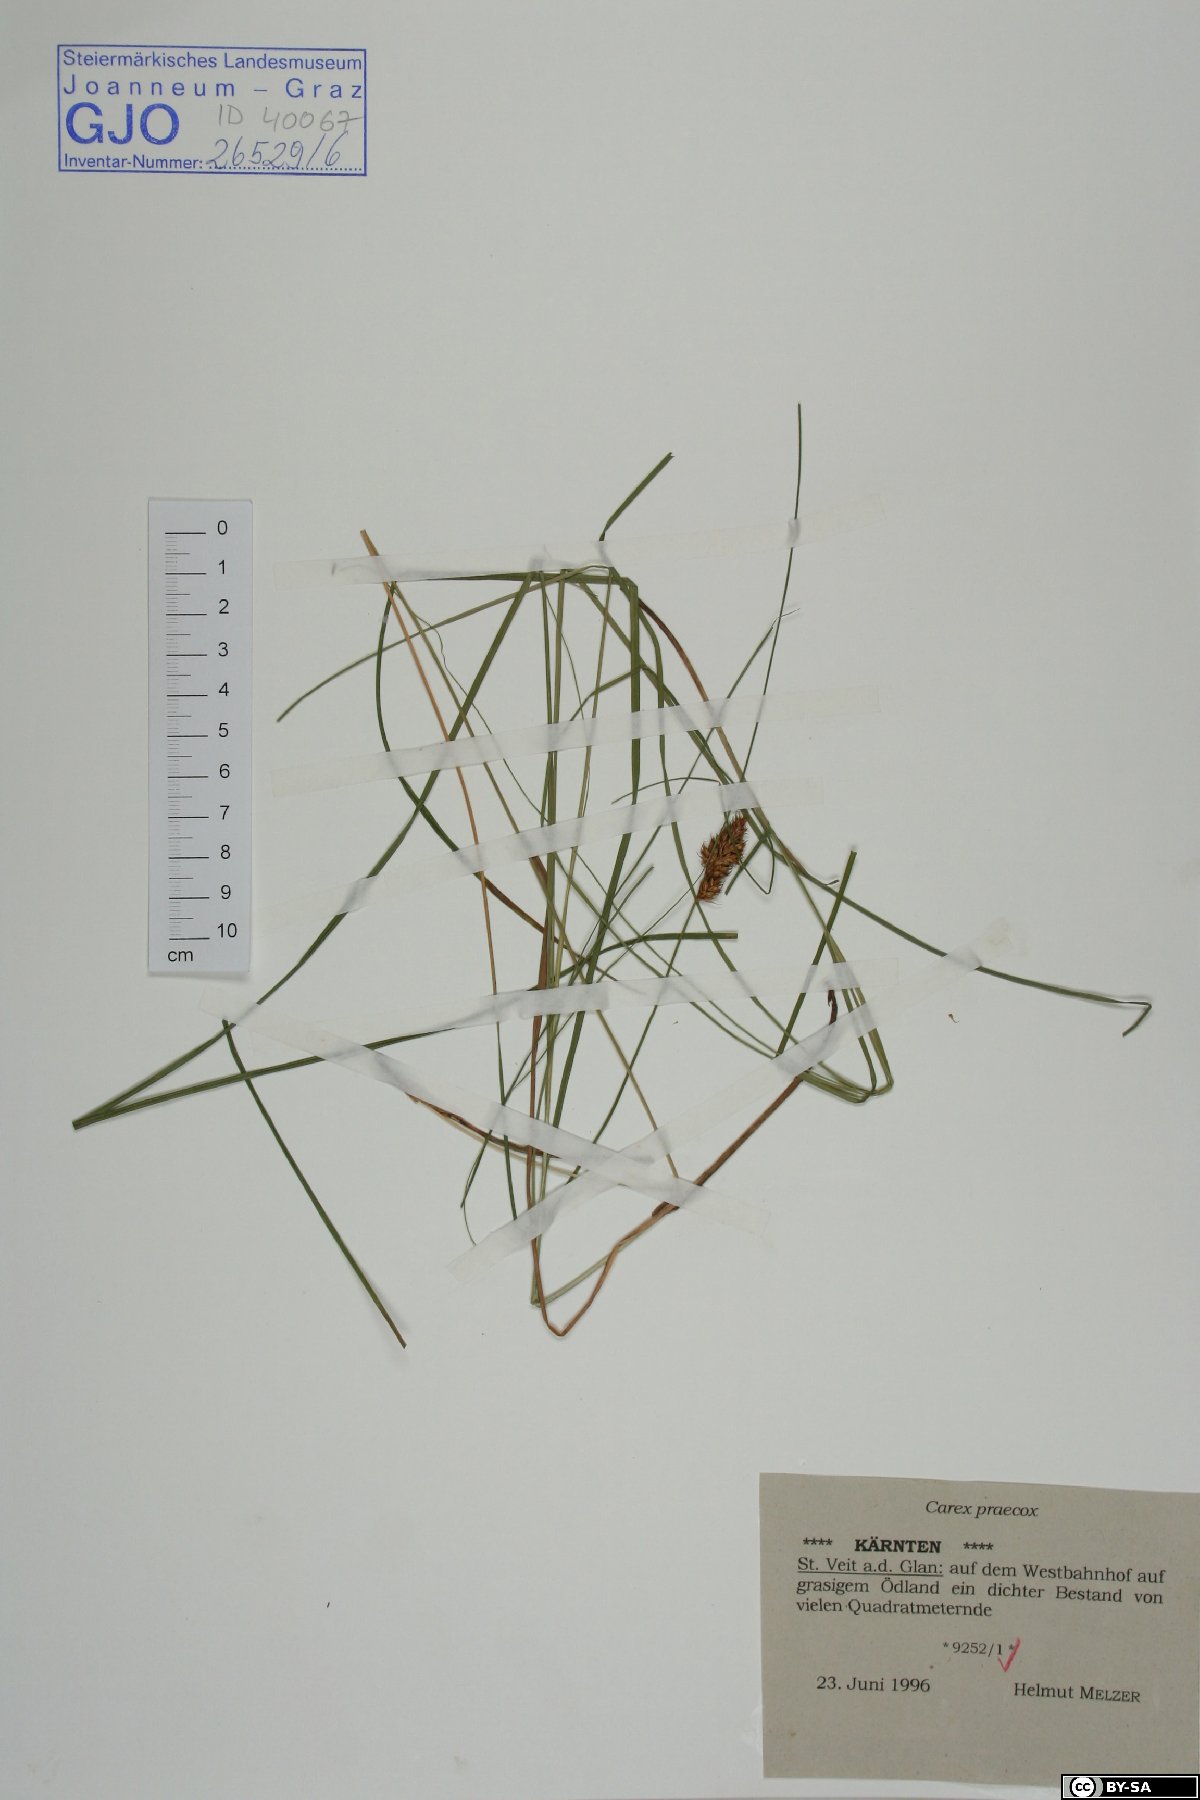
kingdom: Plantae
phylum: Tracheophyta
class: Liliopsida
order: Poales
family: Cyperaceae
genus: Carex
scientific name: Carex praecox
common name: Early sedge
